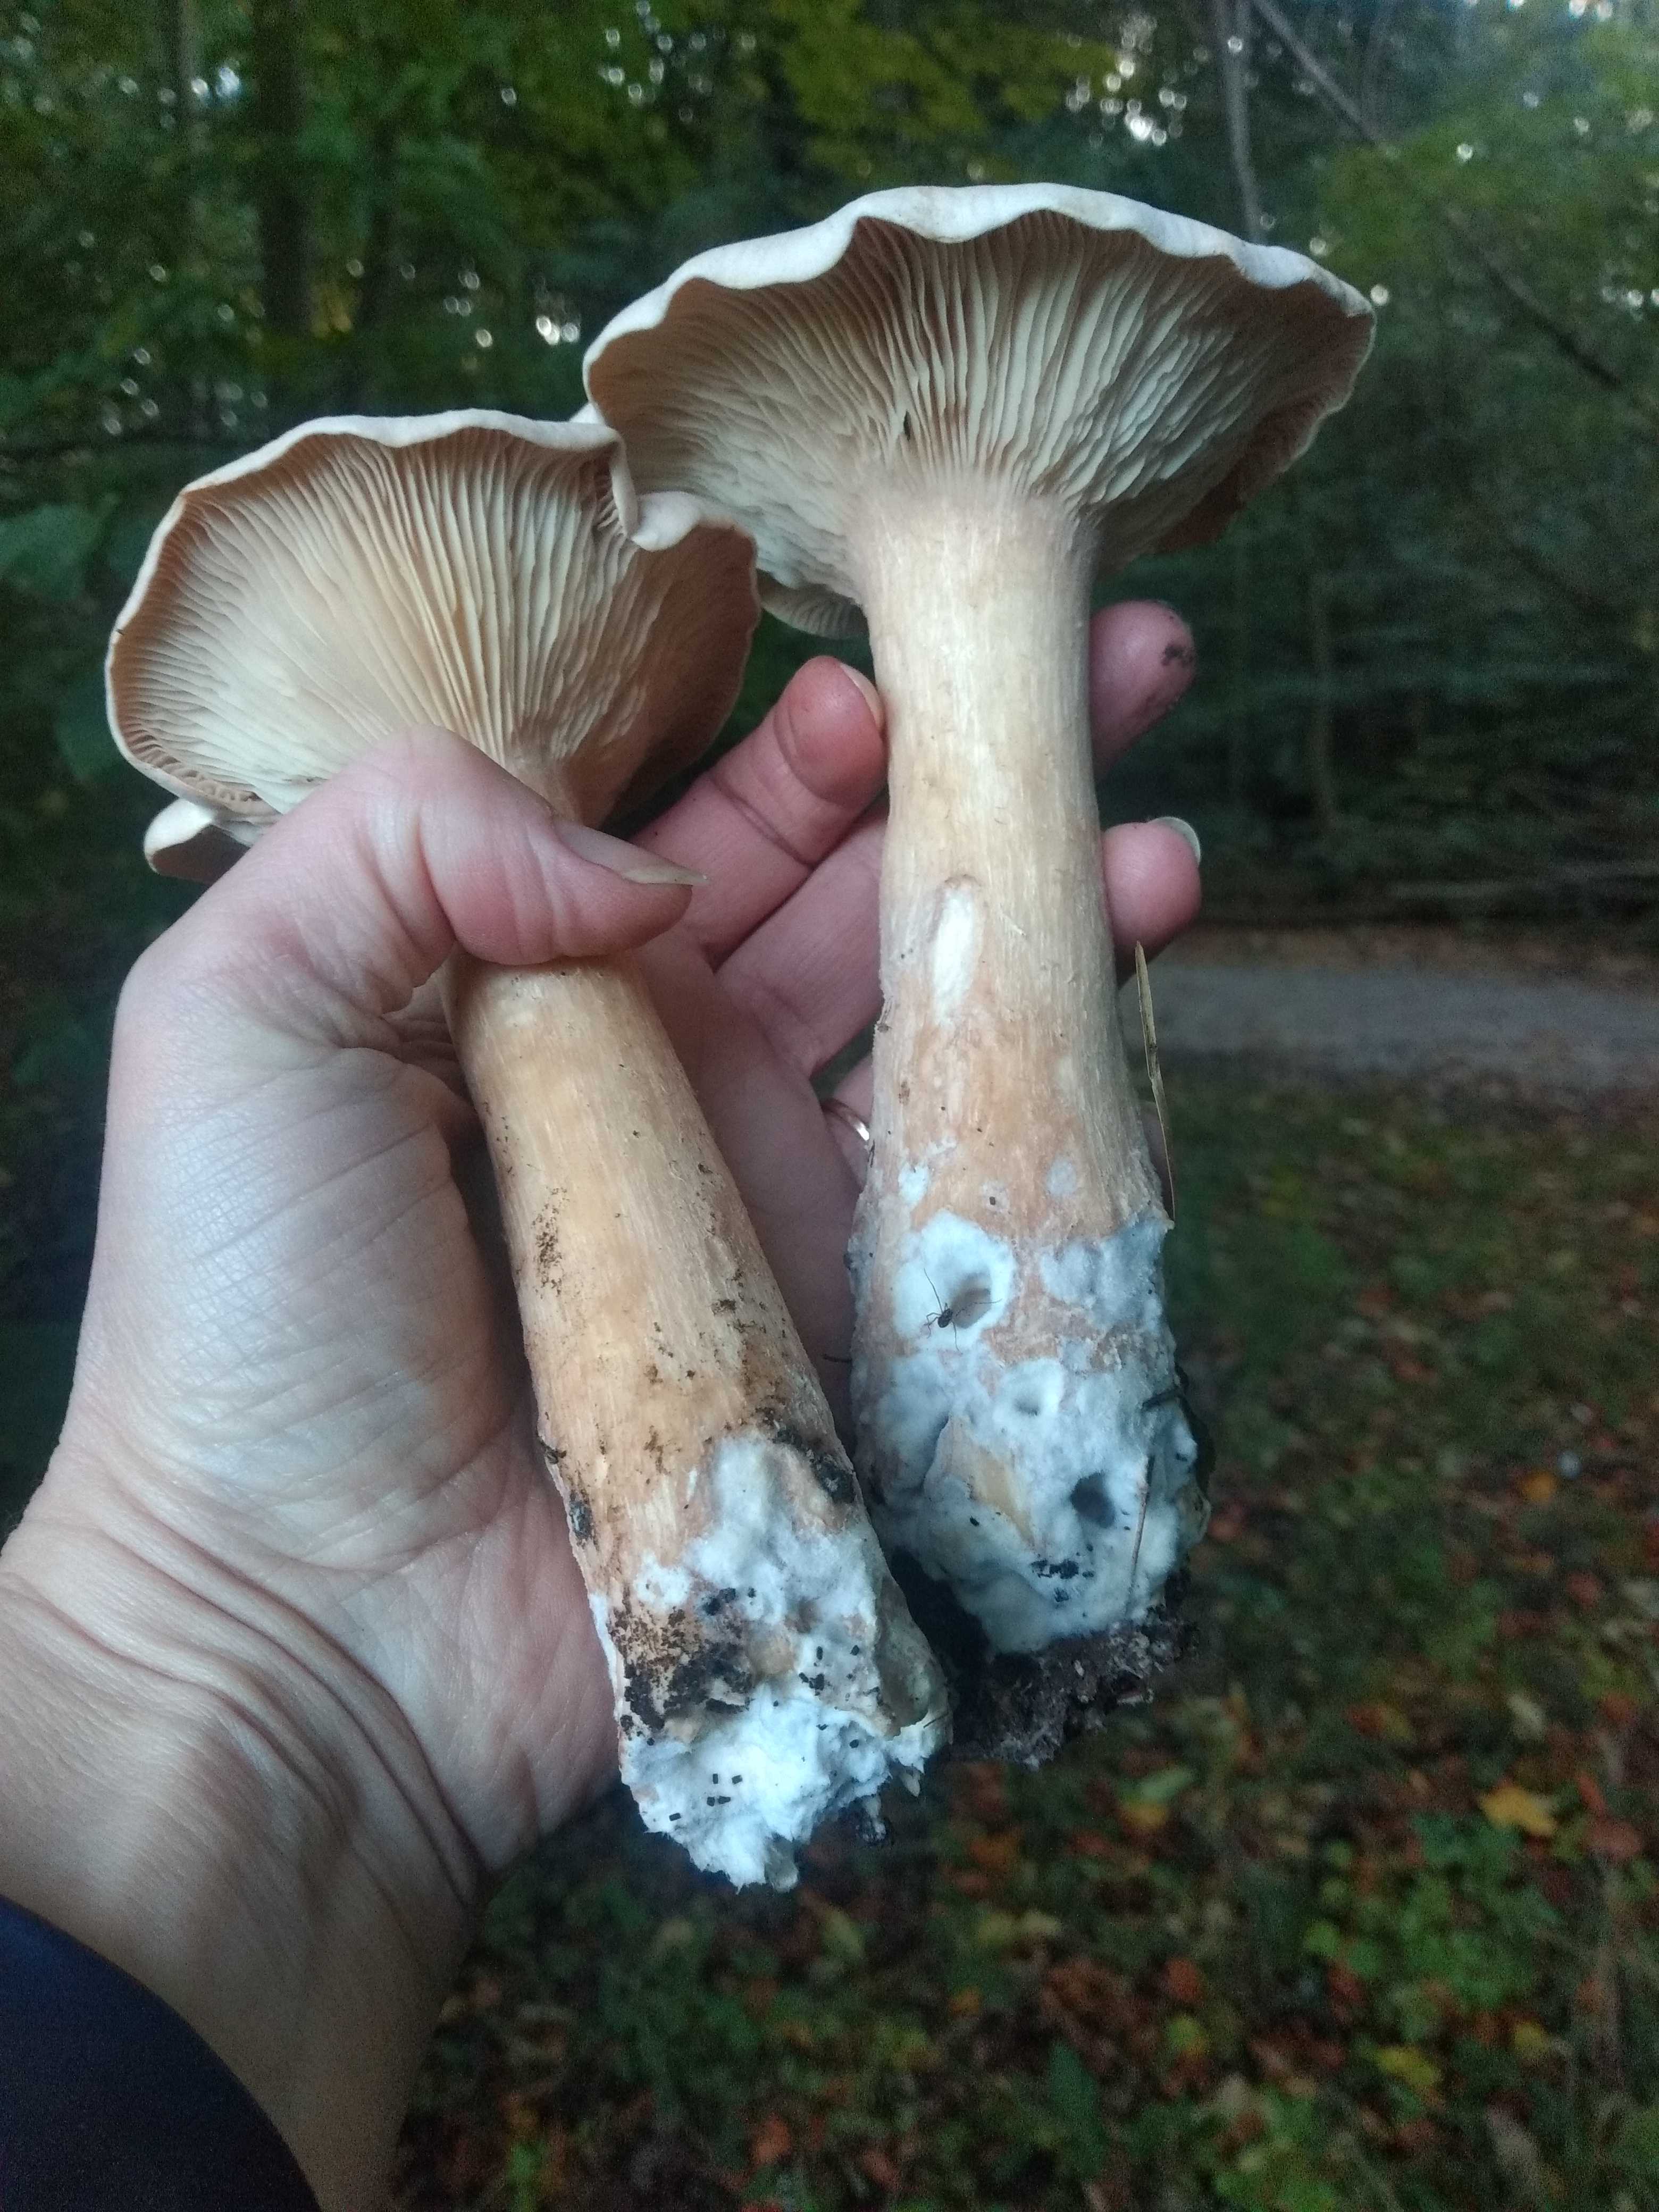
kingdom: Fungi
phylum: Basidiomycota
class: Agaricomycetes
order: Agaricales
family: Tricholomataceae
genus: Infundibulicybe
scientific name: Infundibulicybe geotropa
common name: stor tragthat
